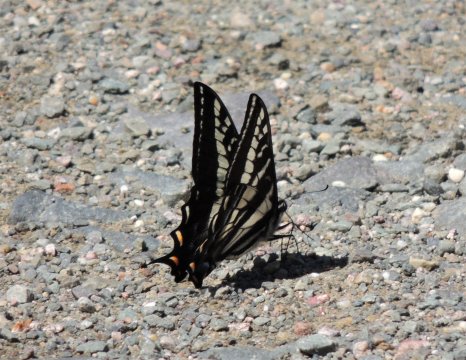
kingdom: Animalia
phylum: Arthropoda
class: Insecta
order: Lepidoptera
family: Papilionidae
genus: Pterourus
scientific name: Pterourus eurymedon
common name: Pale Swallowtail
